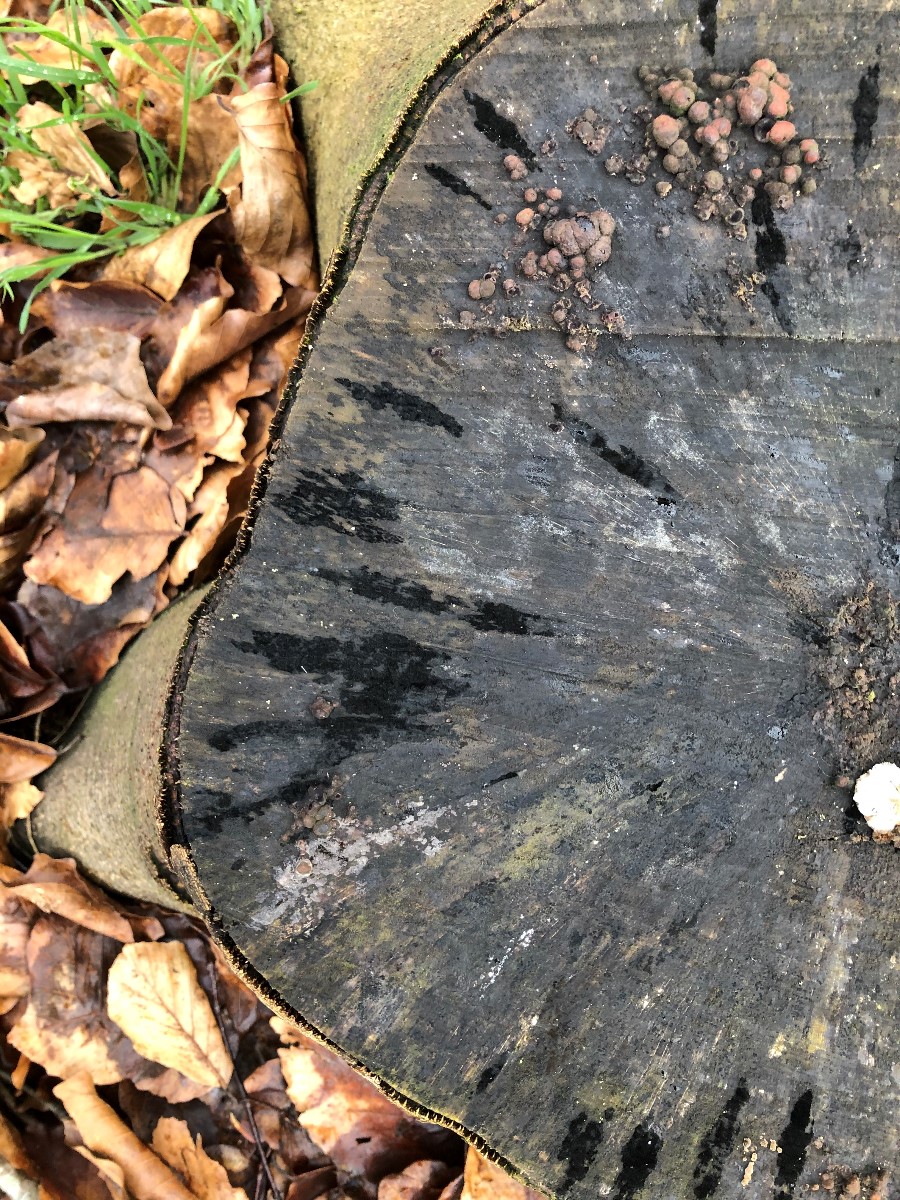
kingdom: Fungi
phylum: Ascomycota
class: Leotiomycetes
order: Helotiales
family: Helotiaceae
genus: Bispora
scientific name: Bispora pallescens
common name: måtte-snitskive
